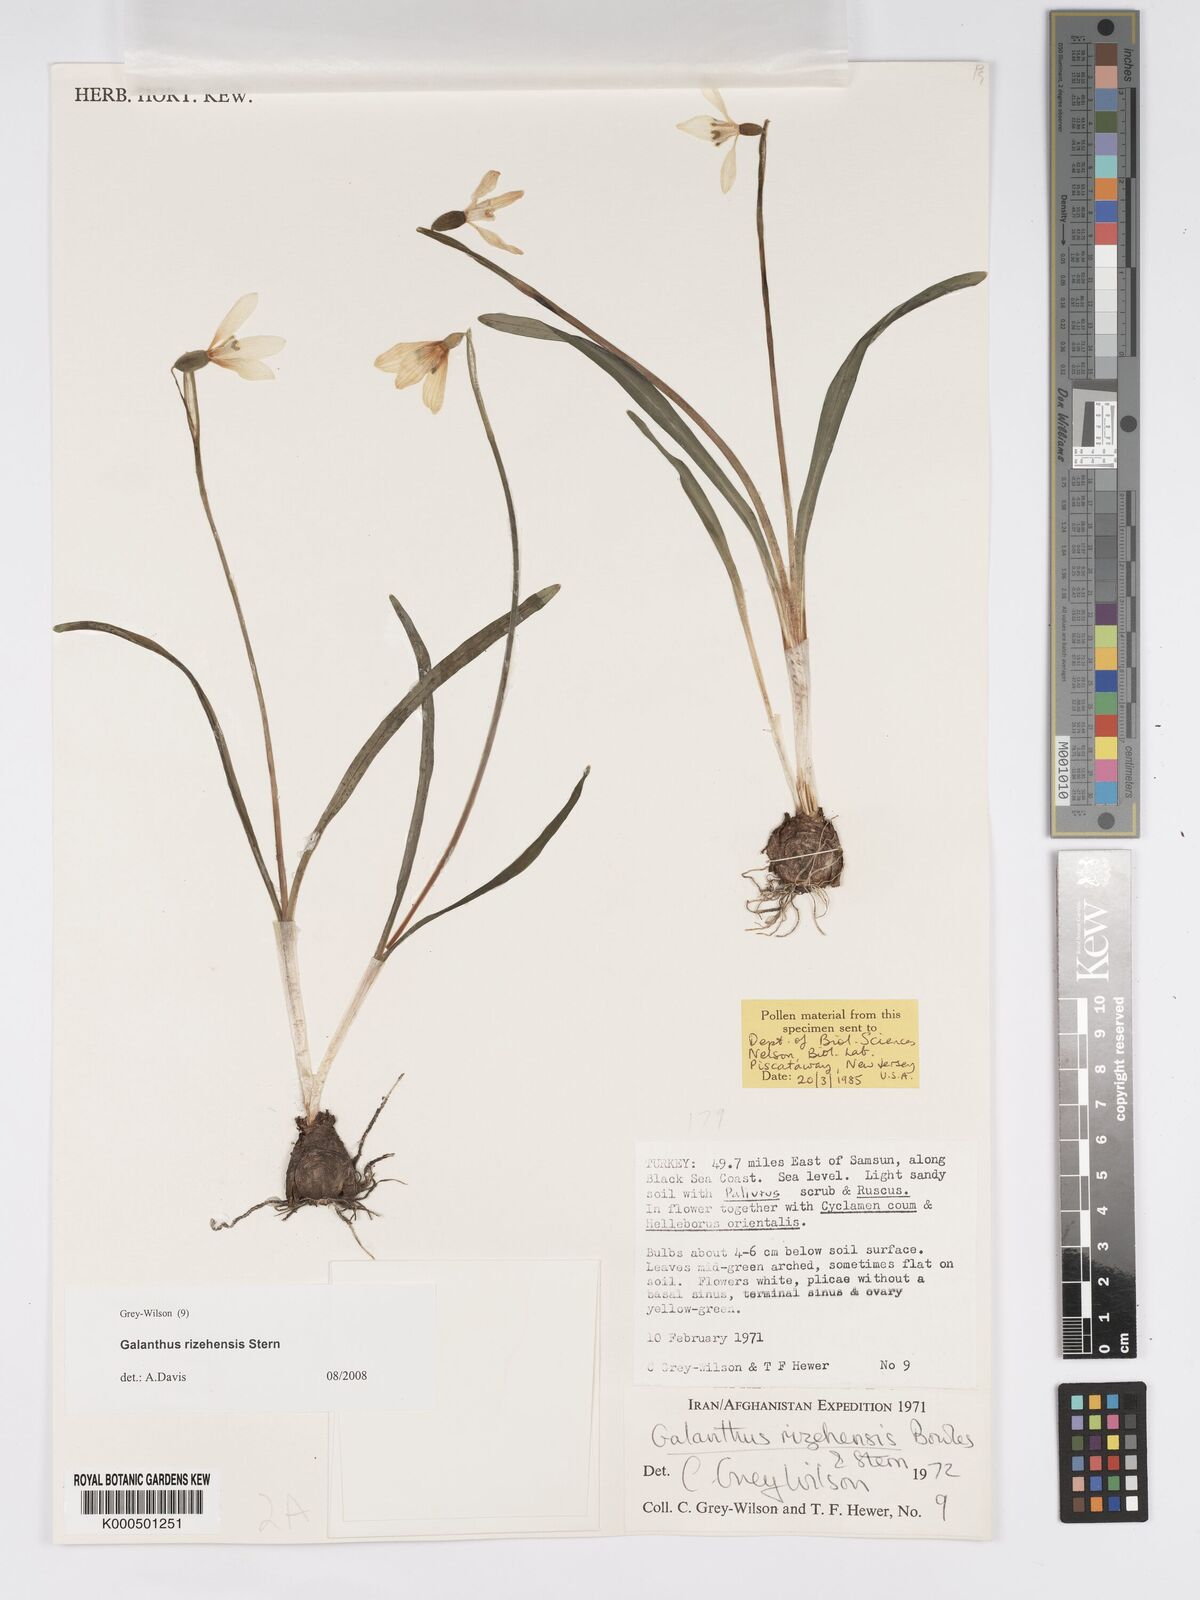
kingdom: Plantae
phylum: Tracheophyta
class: Liliopsida
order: Asparagales
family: Amaryllidaceae
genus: Galanthus
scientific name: Galanthus rizehensis
